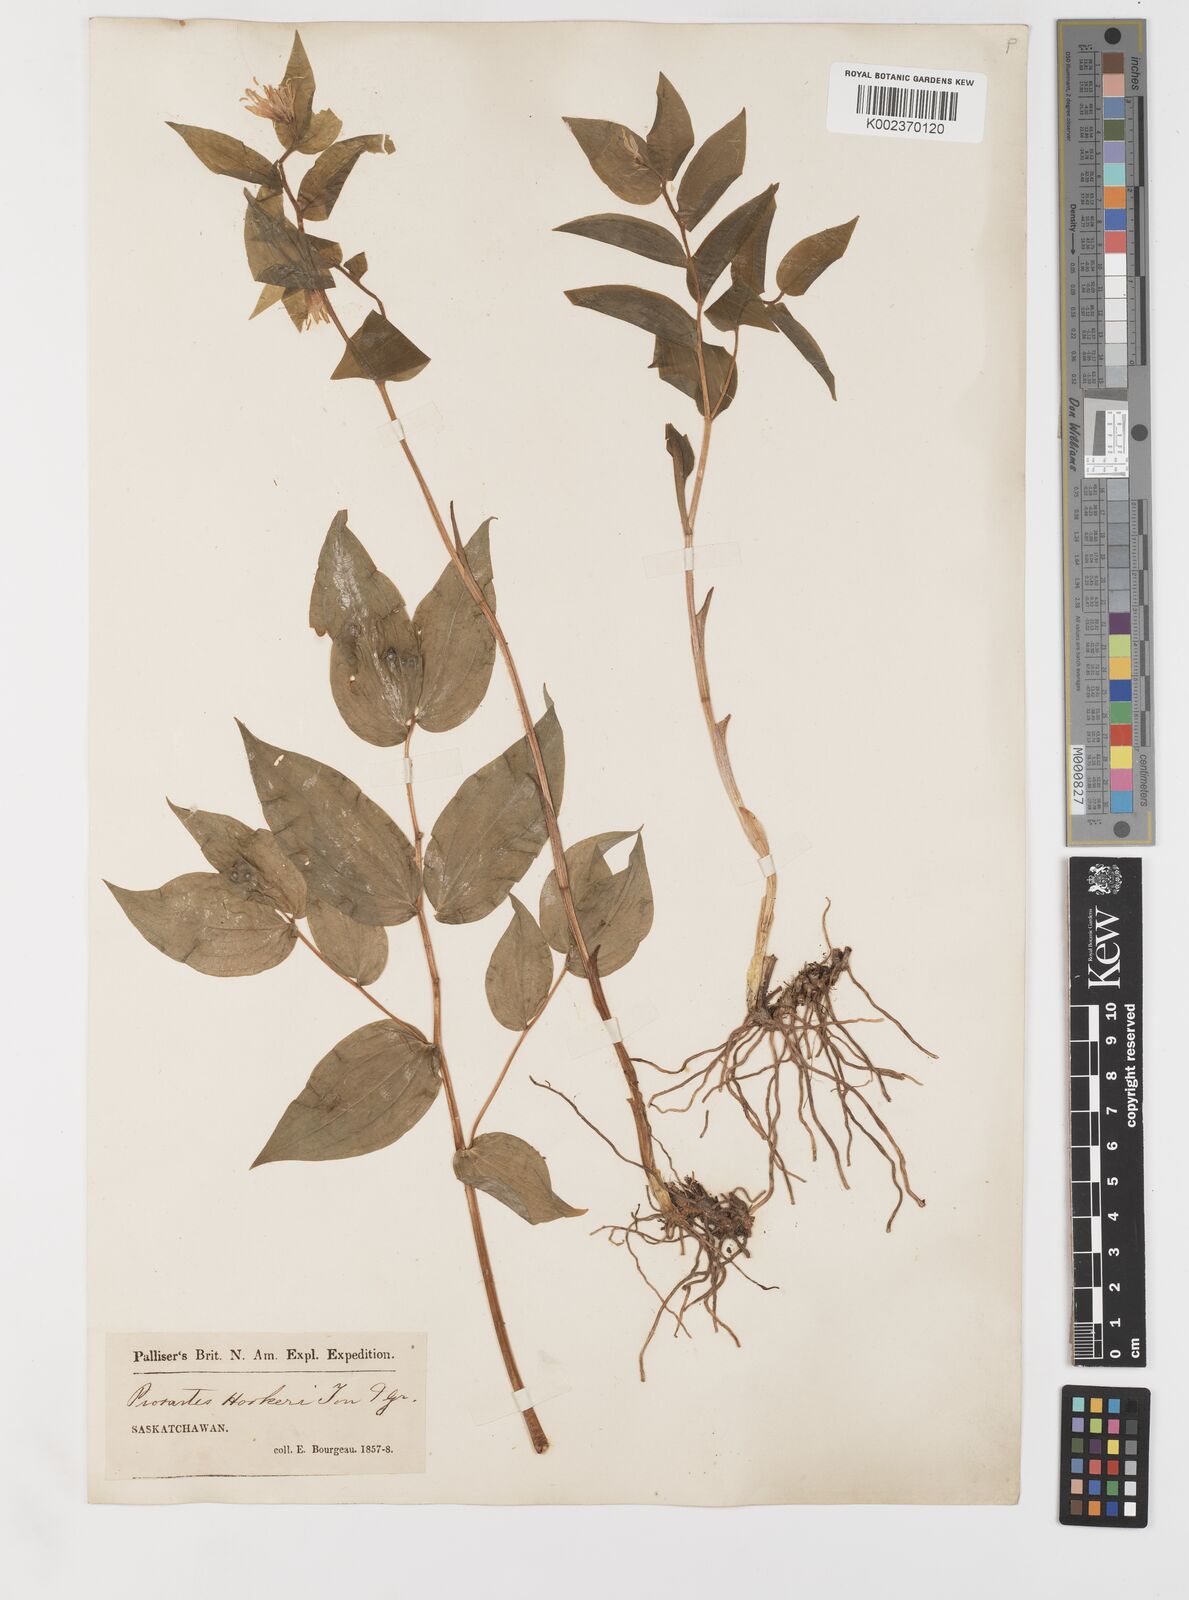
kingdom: Plantae
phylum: Tracheophyta
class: Liliopsida
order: Liliales
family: Liliaceae
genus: Prosartes
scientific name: Prosartes hookeri
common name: Fairy-bells
